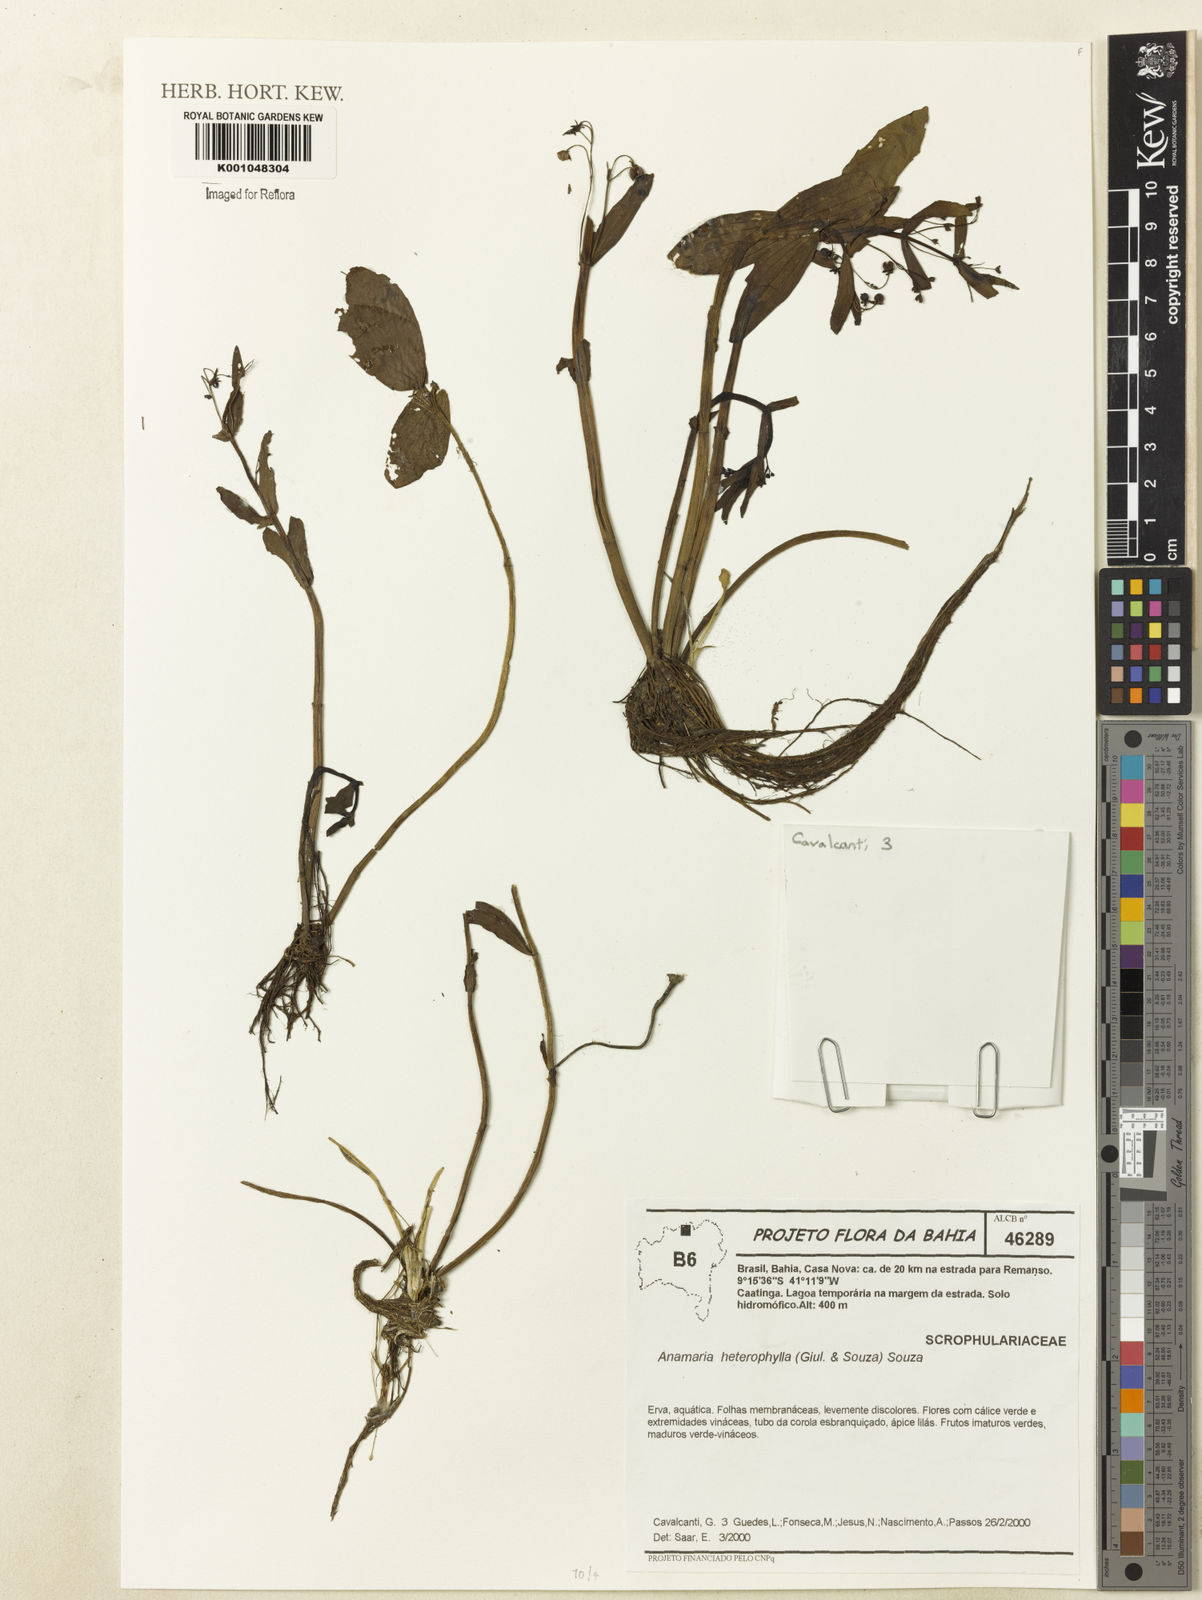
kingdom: Plantae
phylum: Tracheophyta
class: Magnoliopsida
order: Lamiales
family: Plantaginaceae
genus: Anamaria
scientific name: Anamaria heterophylla
